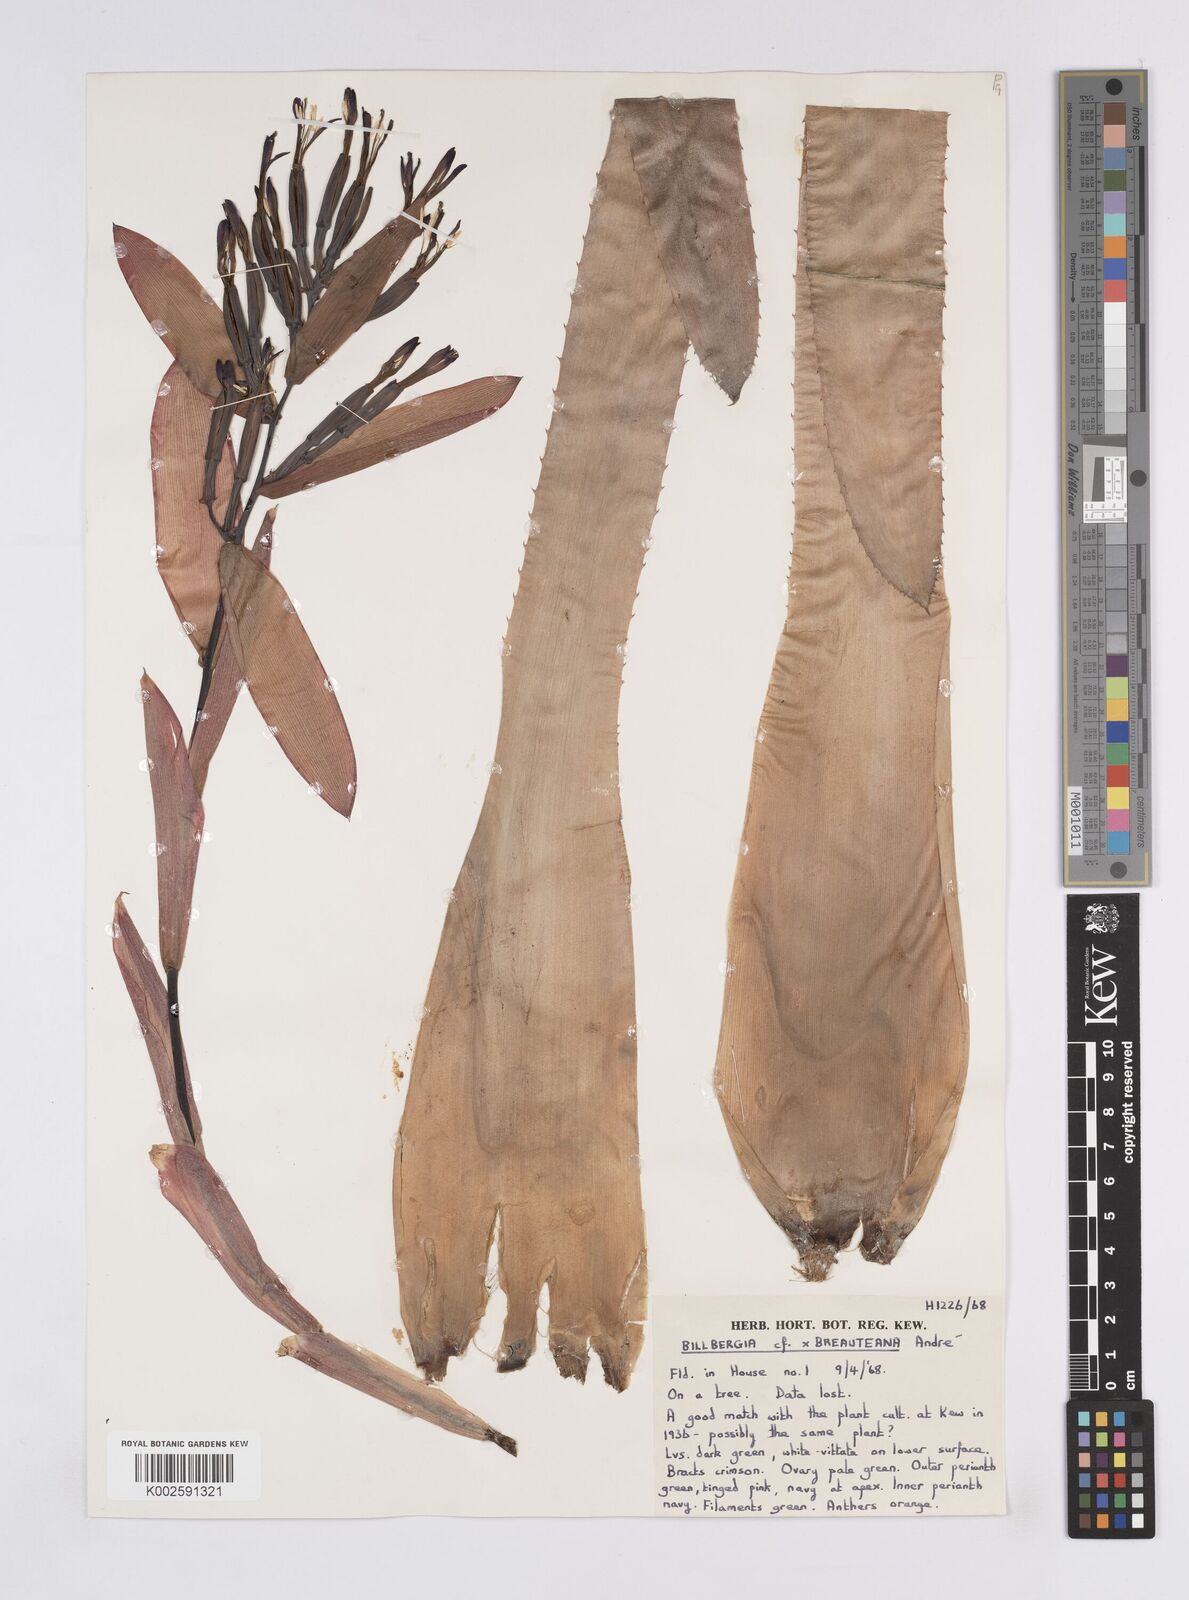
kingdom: Plantae
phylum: Tracheophyta
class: Liliopsida
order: Poales
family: Bromeliaceae
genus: Billbergia
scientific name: Billbergia joliboisii
